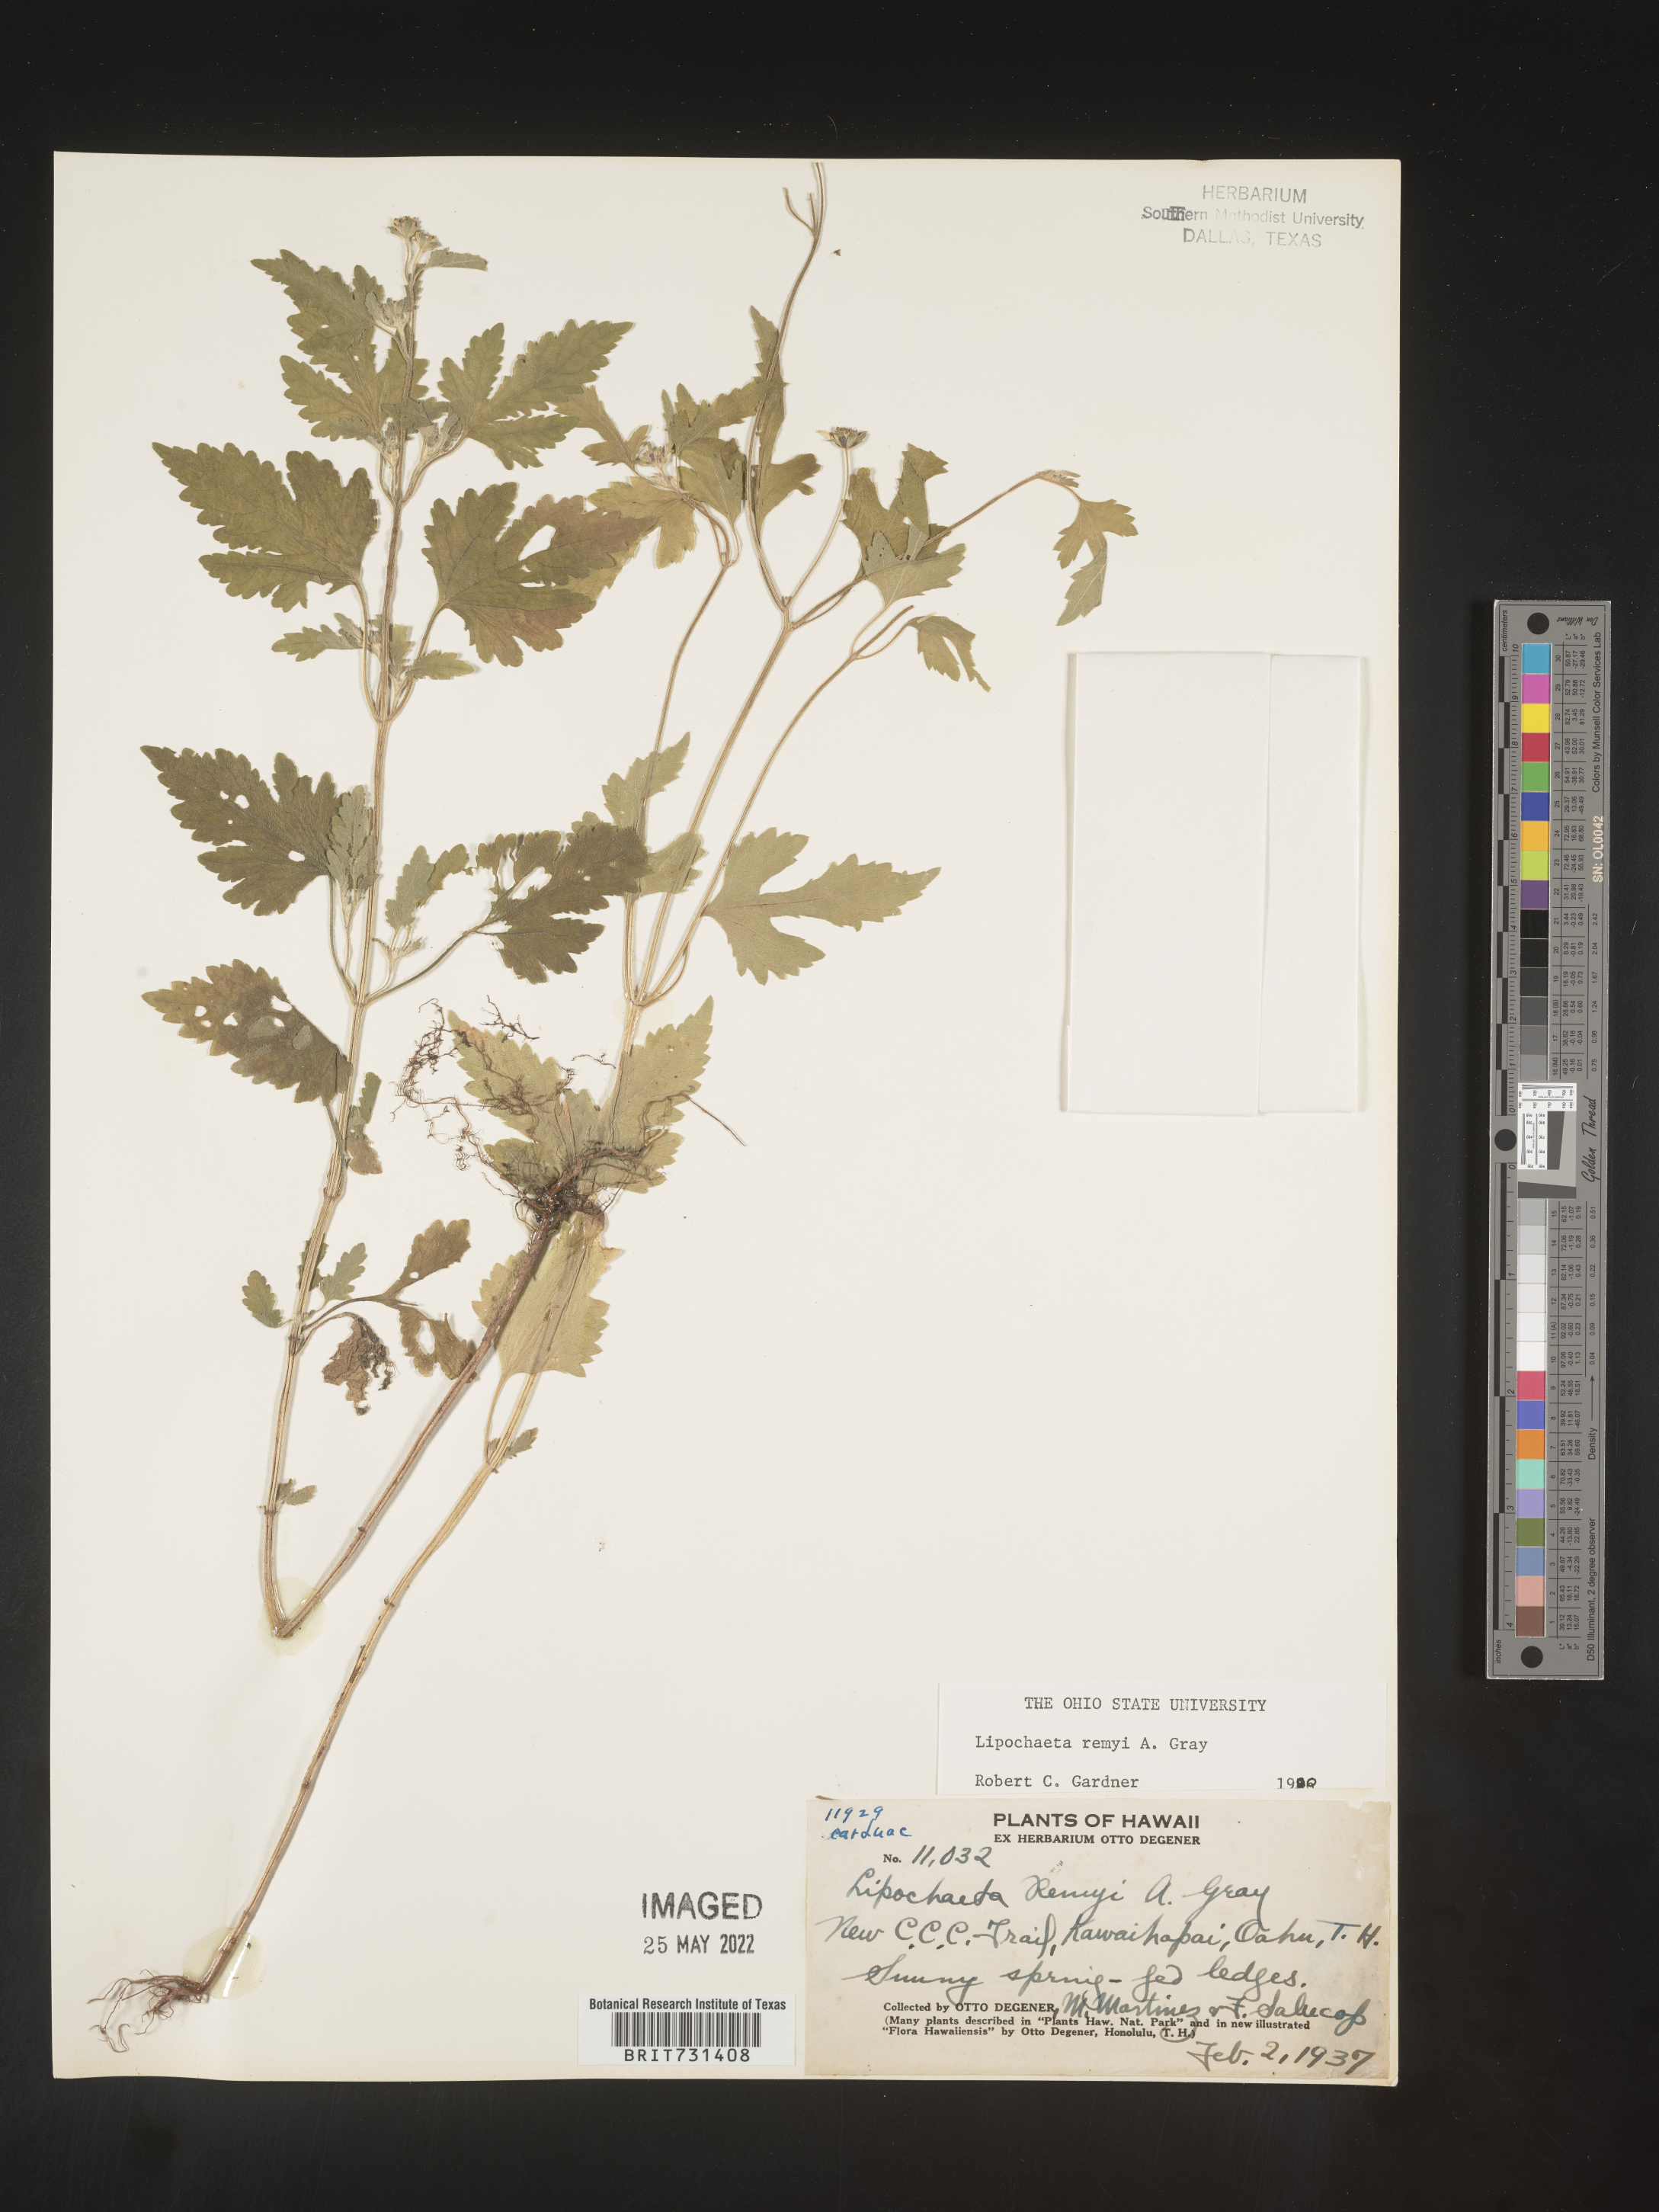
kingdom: Plantae
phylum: Tracheophyta
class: Magnoliopsida
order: Asterales
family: Asteraceae
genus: Lipochaeta
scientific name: Lipochaeta
